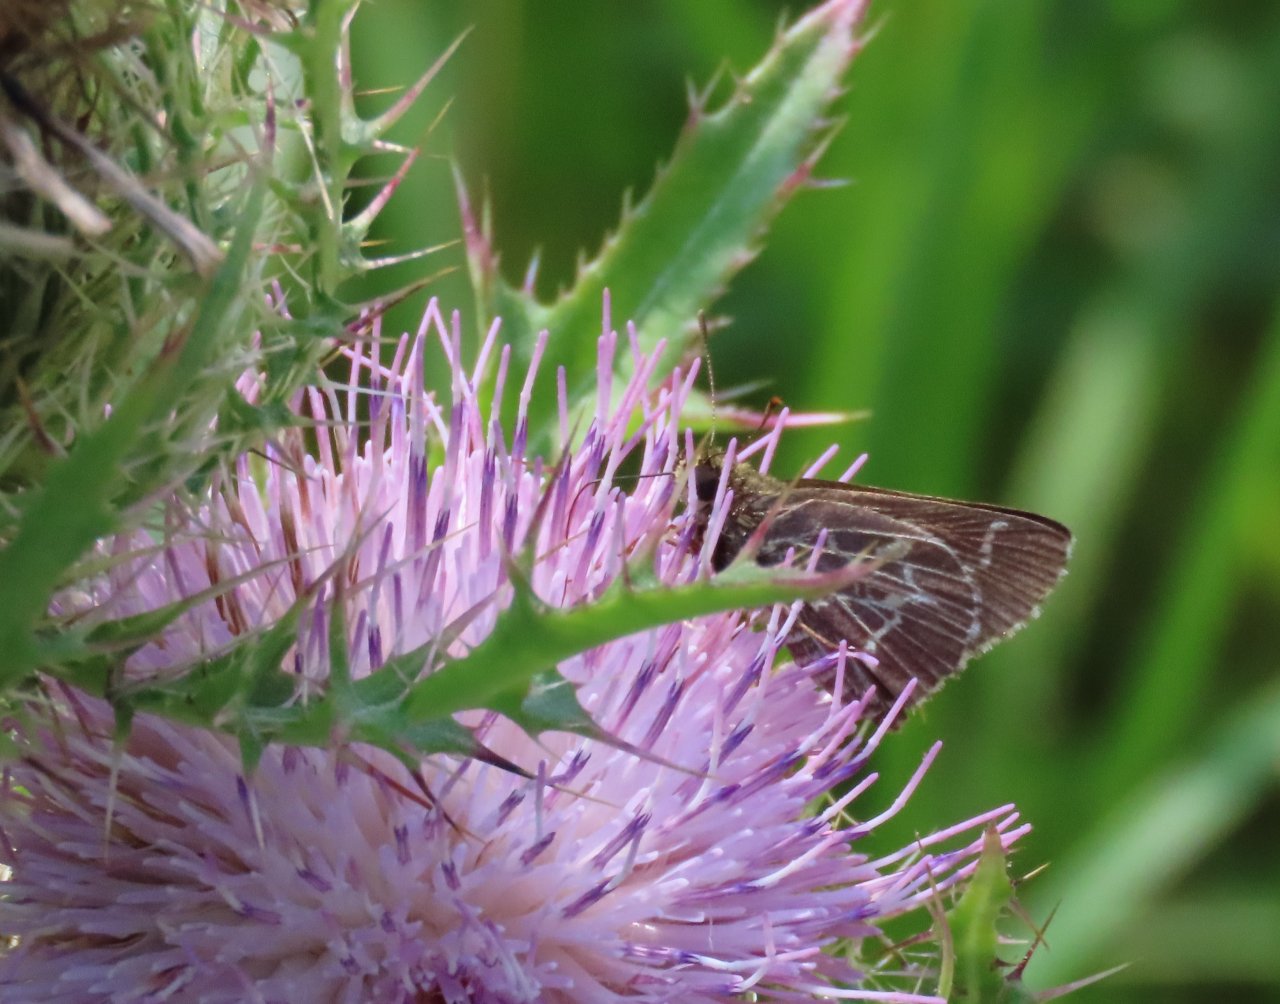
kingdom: Animalia
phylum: Arthropoda
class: Insecta
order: Lepidoptera
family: Hesperiidae
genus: Mastor
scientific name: Mastor aesculapius
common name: Lace-winged Roadside-Skipper
